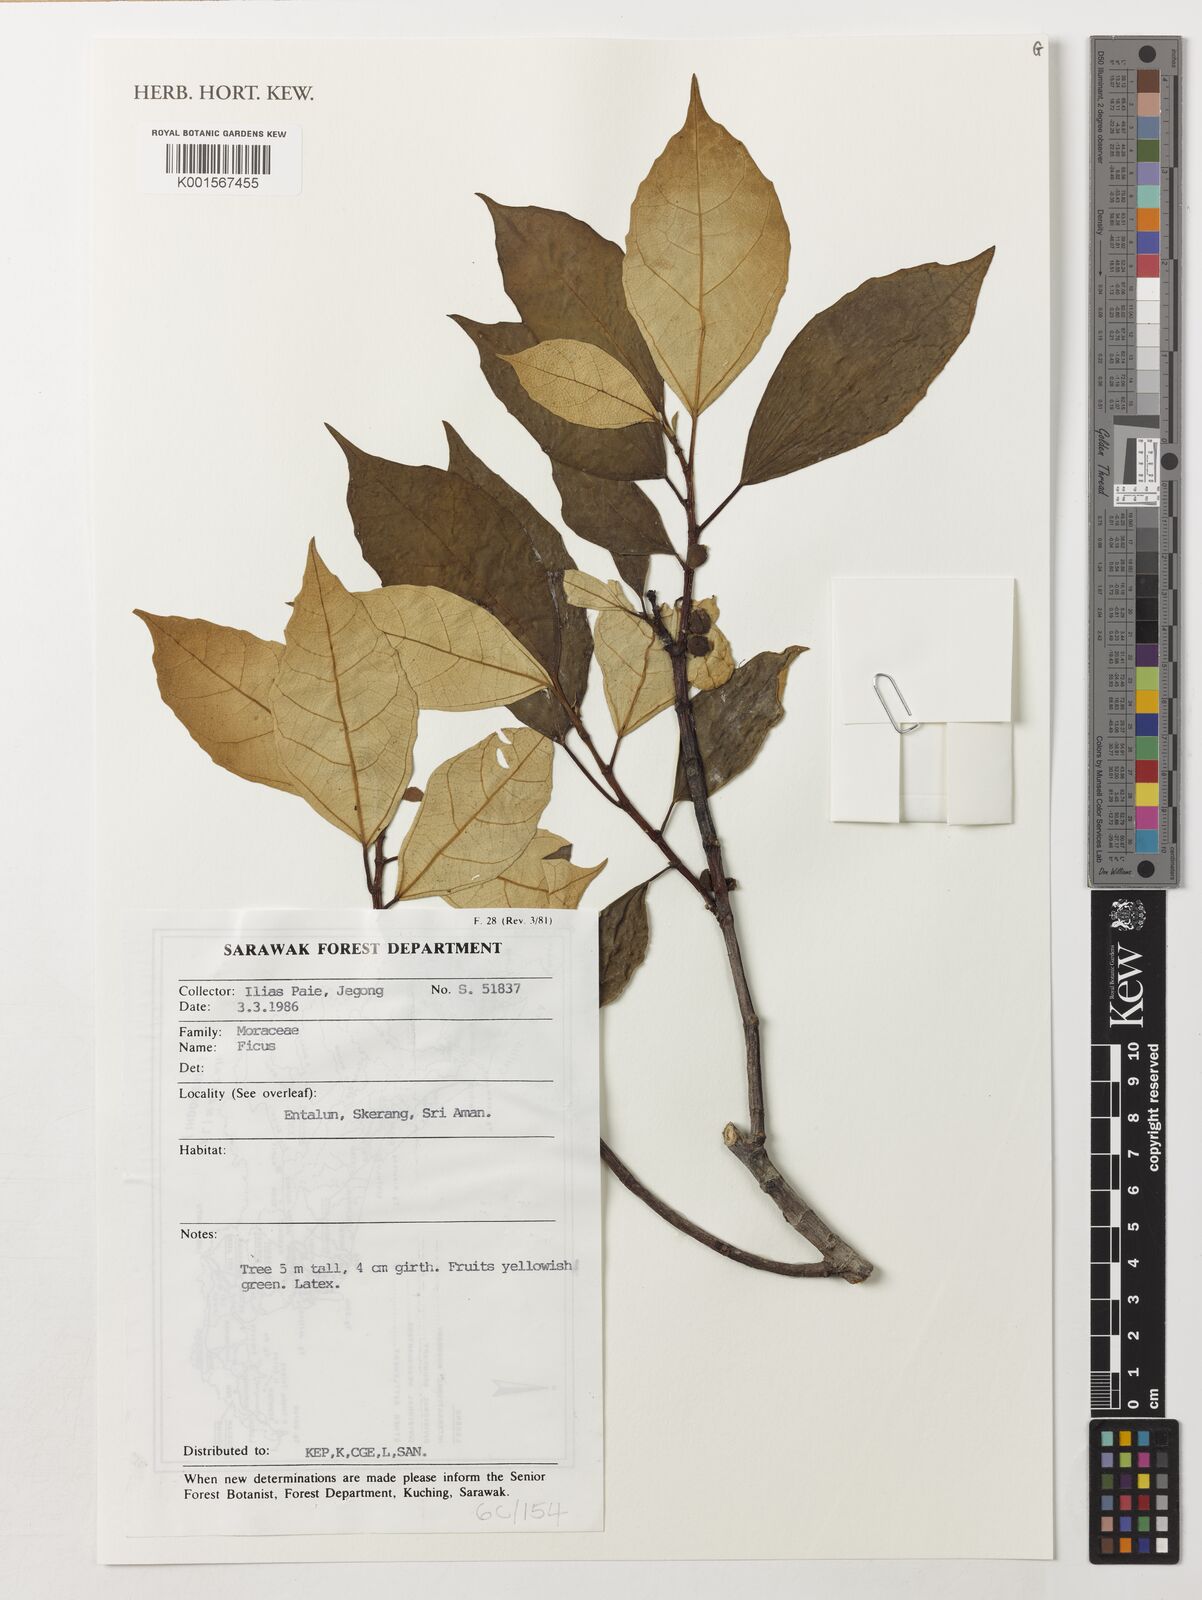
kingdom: Plantae
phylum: Tracheophyta
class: Magnoliopsida
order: Rosales
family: Moraceae
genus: Ficus
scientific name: Ficus
